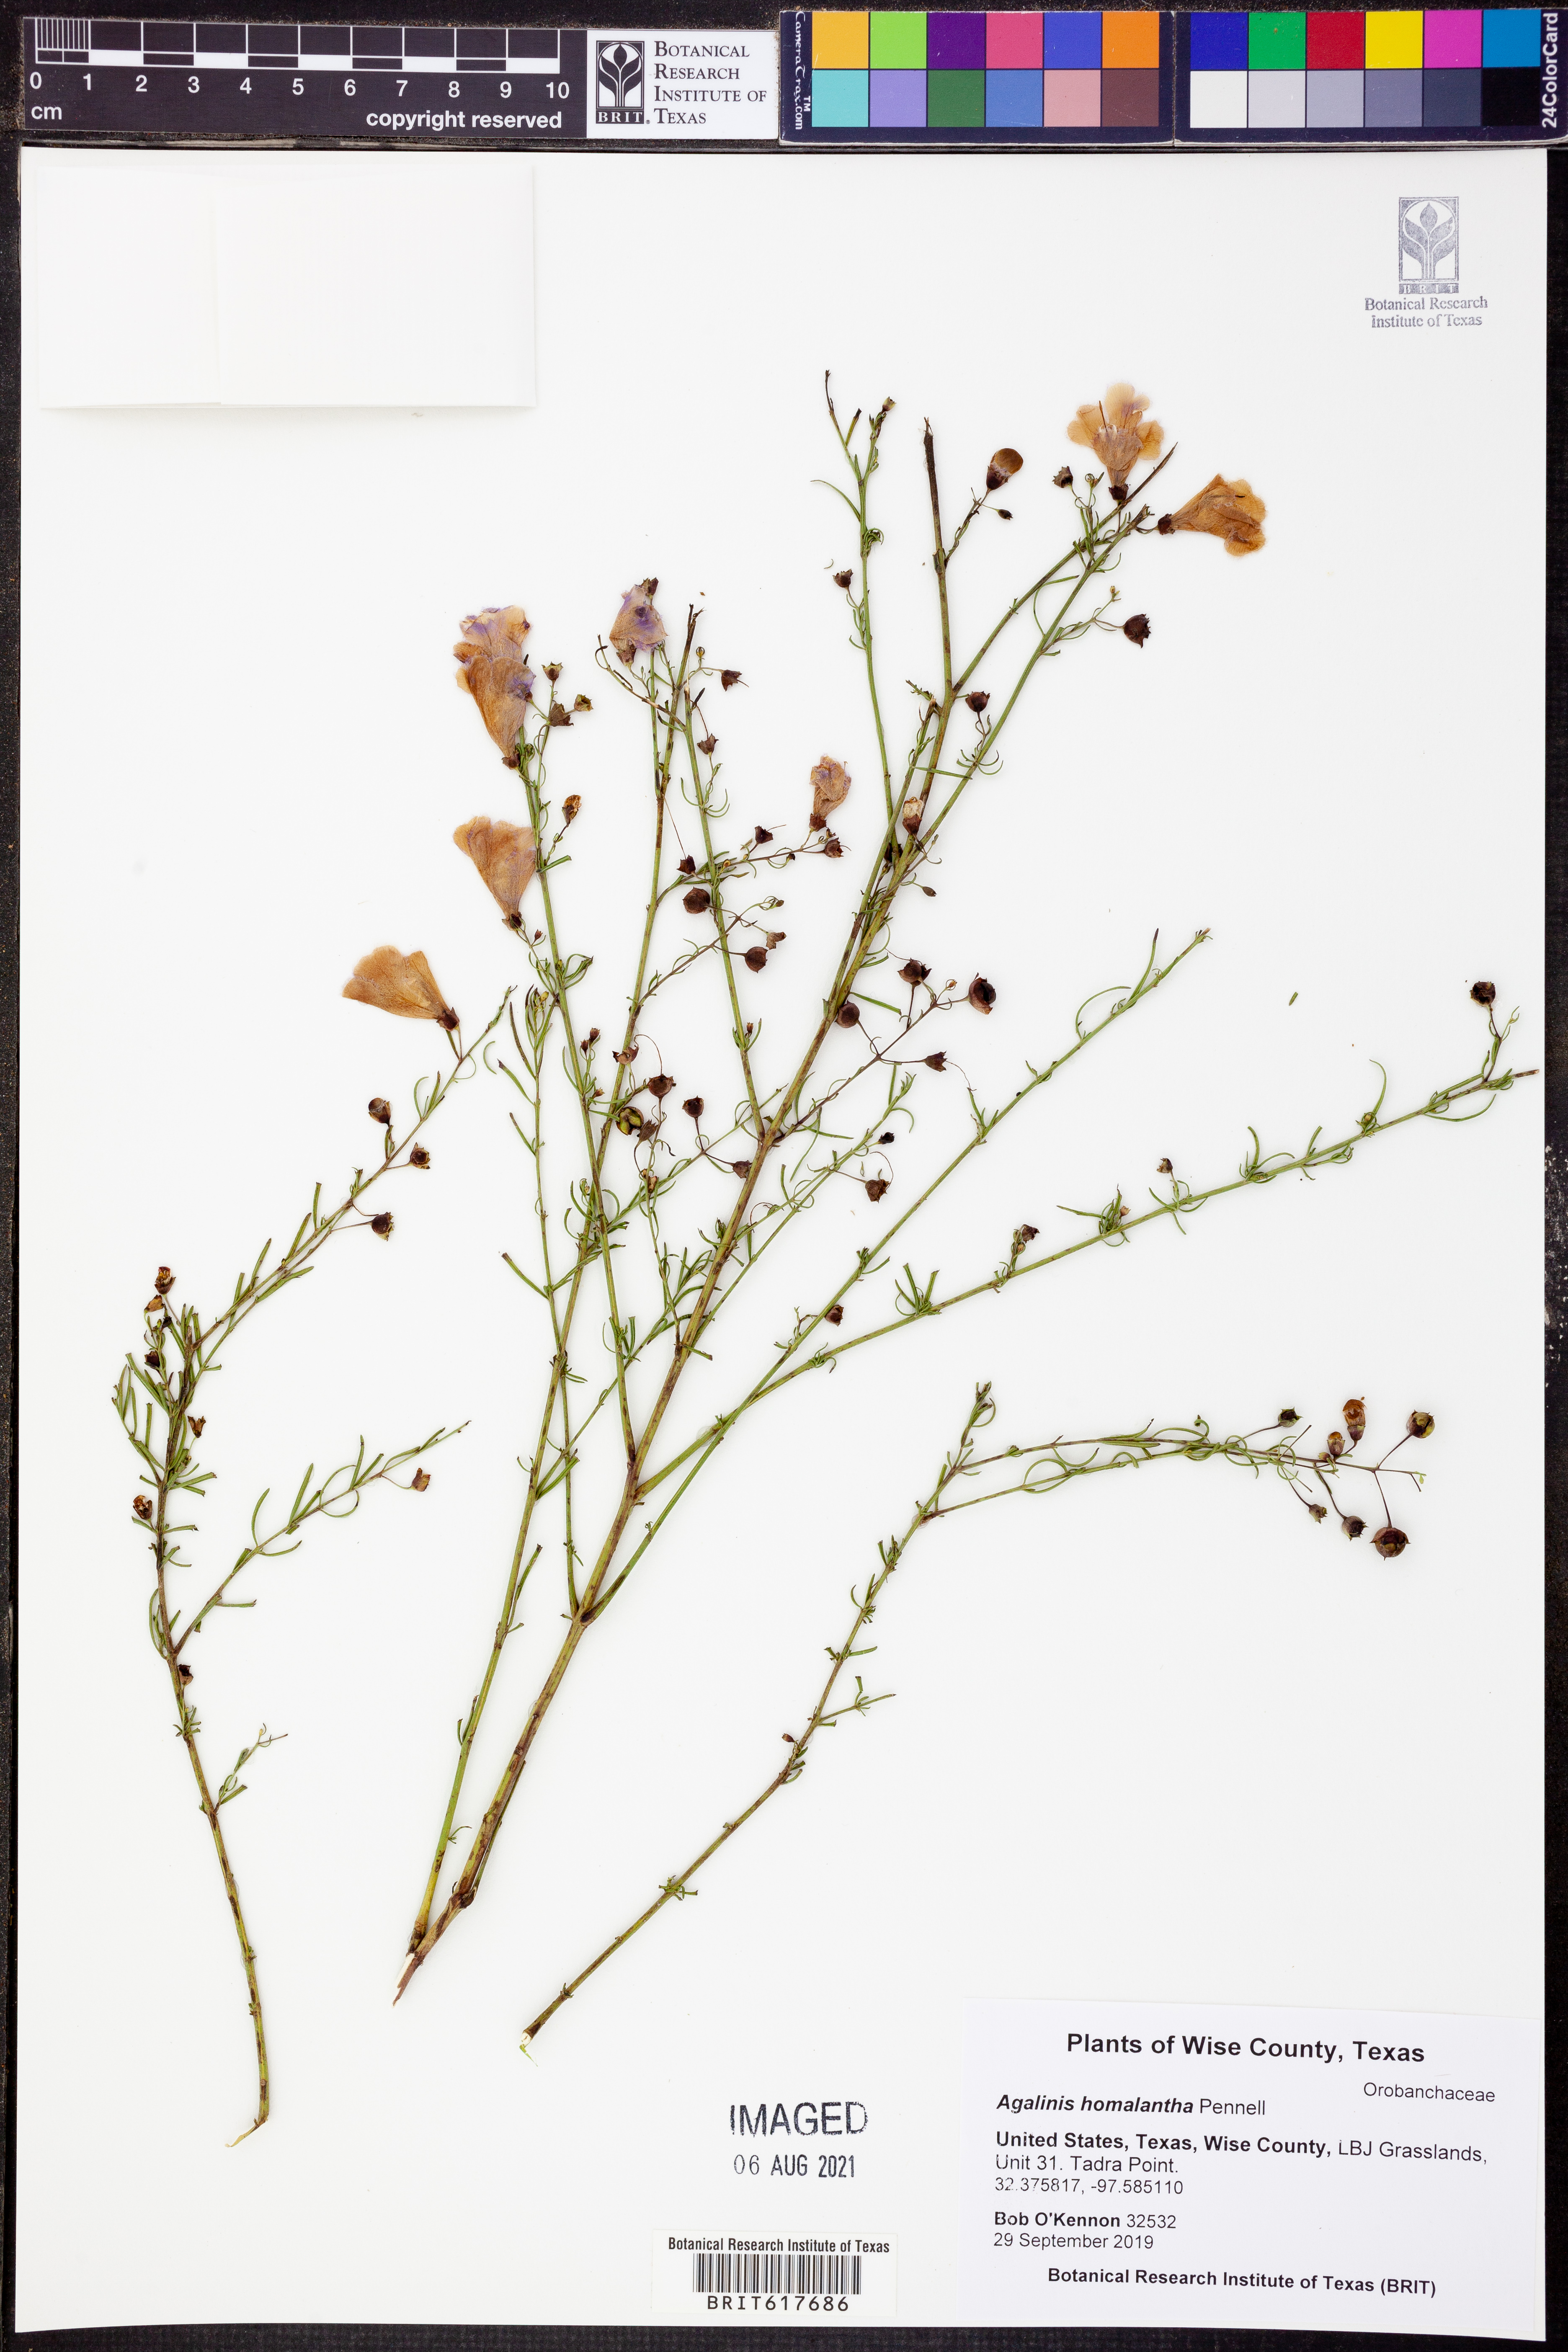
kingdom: Plantae
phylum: Tracheophyta
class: Magnoliopsida
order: Lamiales
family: Orobanchaceae
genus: Agalinis
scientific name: Agalinis homalantha
